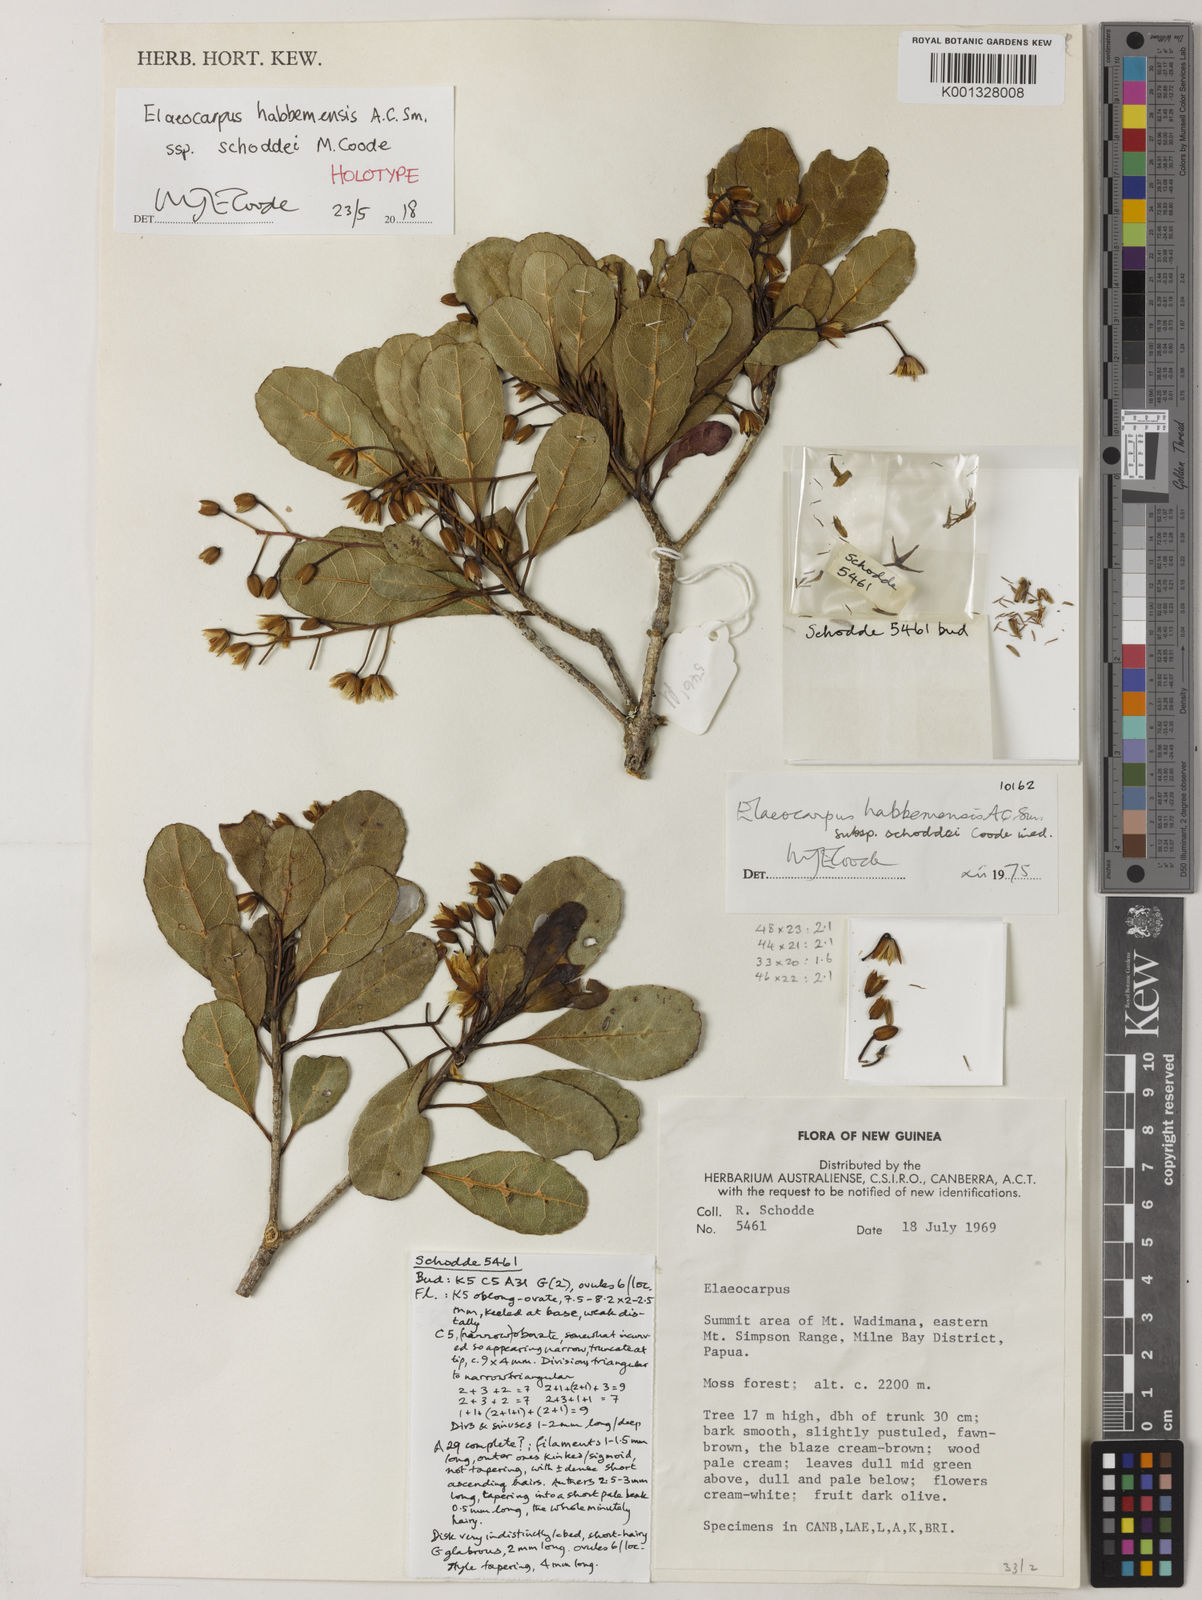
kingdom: Plantae
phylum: Tracheophyta
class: Magnoliopsida
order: Oxalidales
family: Elaeocarpaceae
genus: Elaeocarpus
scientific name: Elaeocarpus habbemensis
